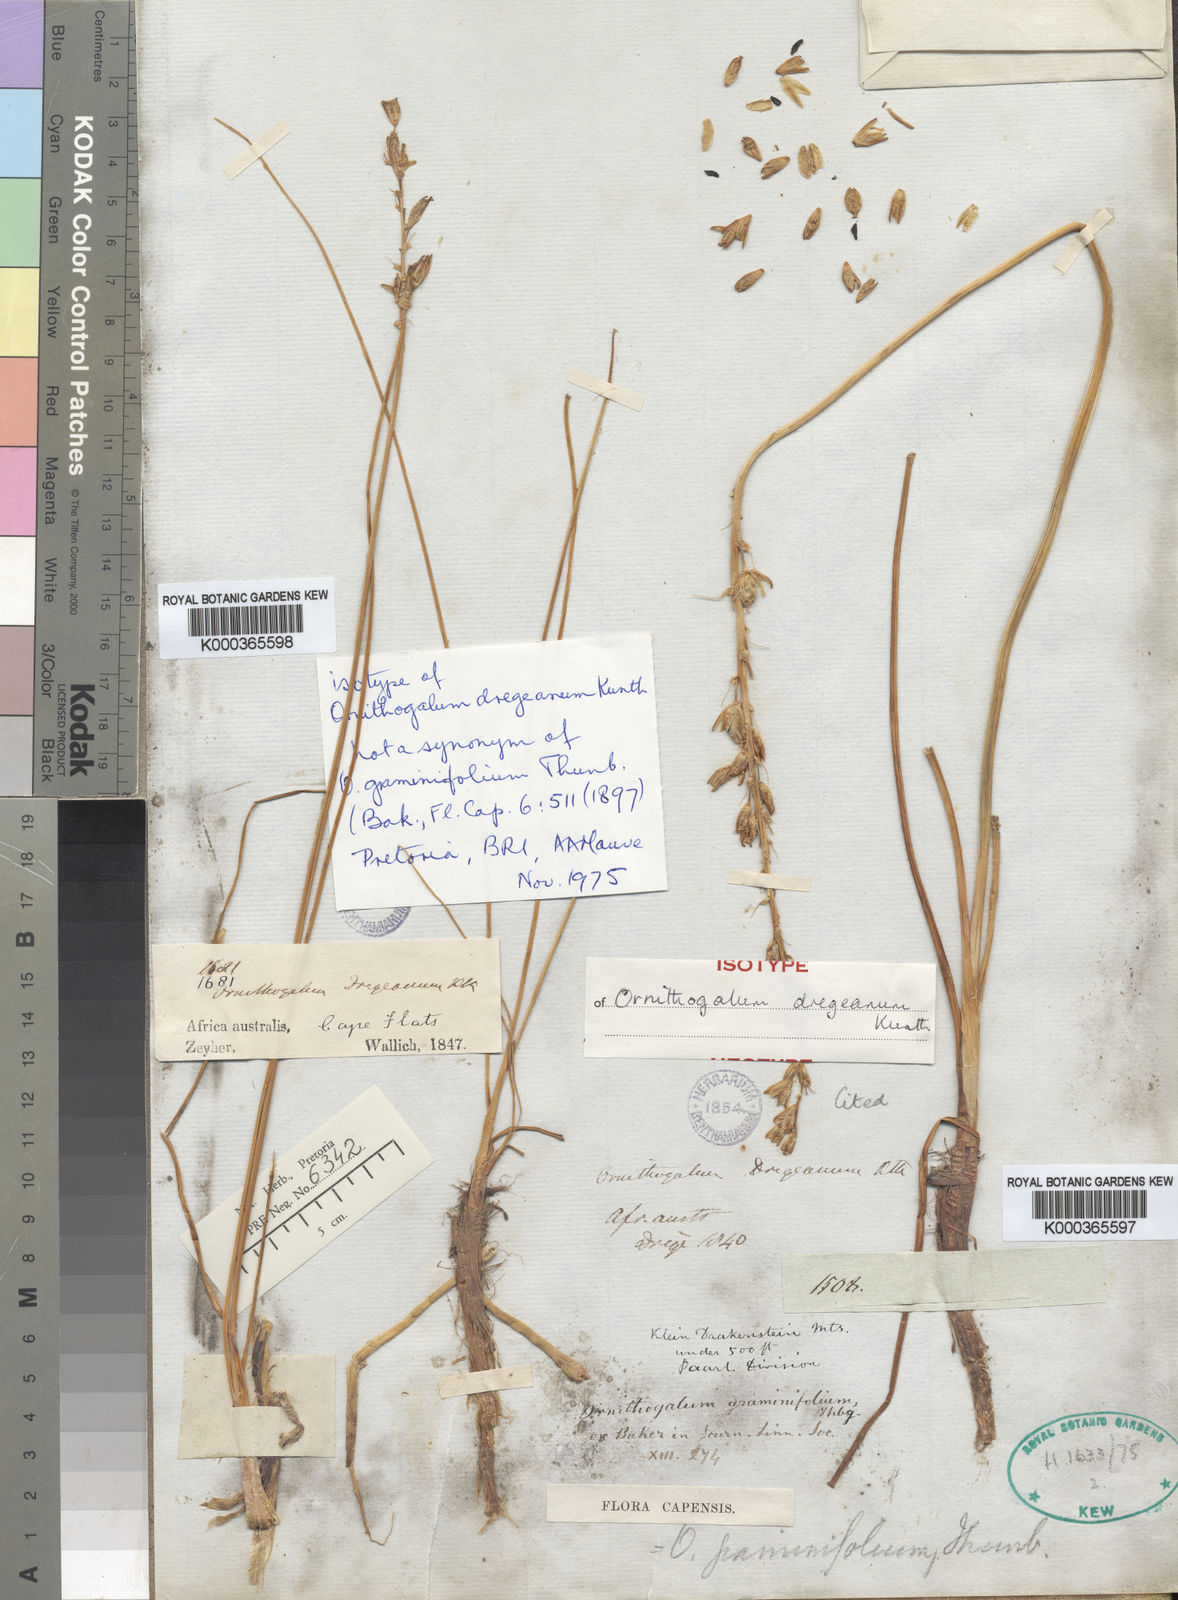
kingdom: Plantae
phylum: Tracheophyta
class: Liliopsida
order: Asparagales
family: Asparagaceae
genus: Ornithogalum
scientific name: Ornithogalum dregeanum
